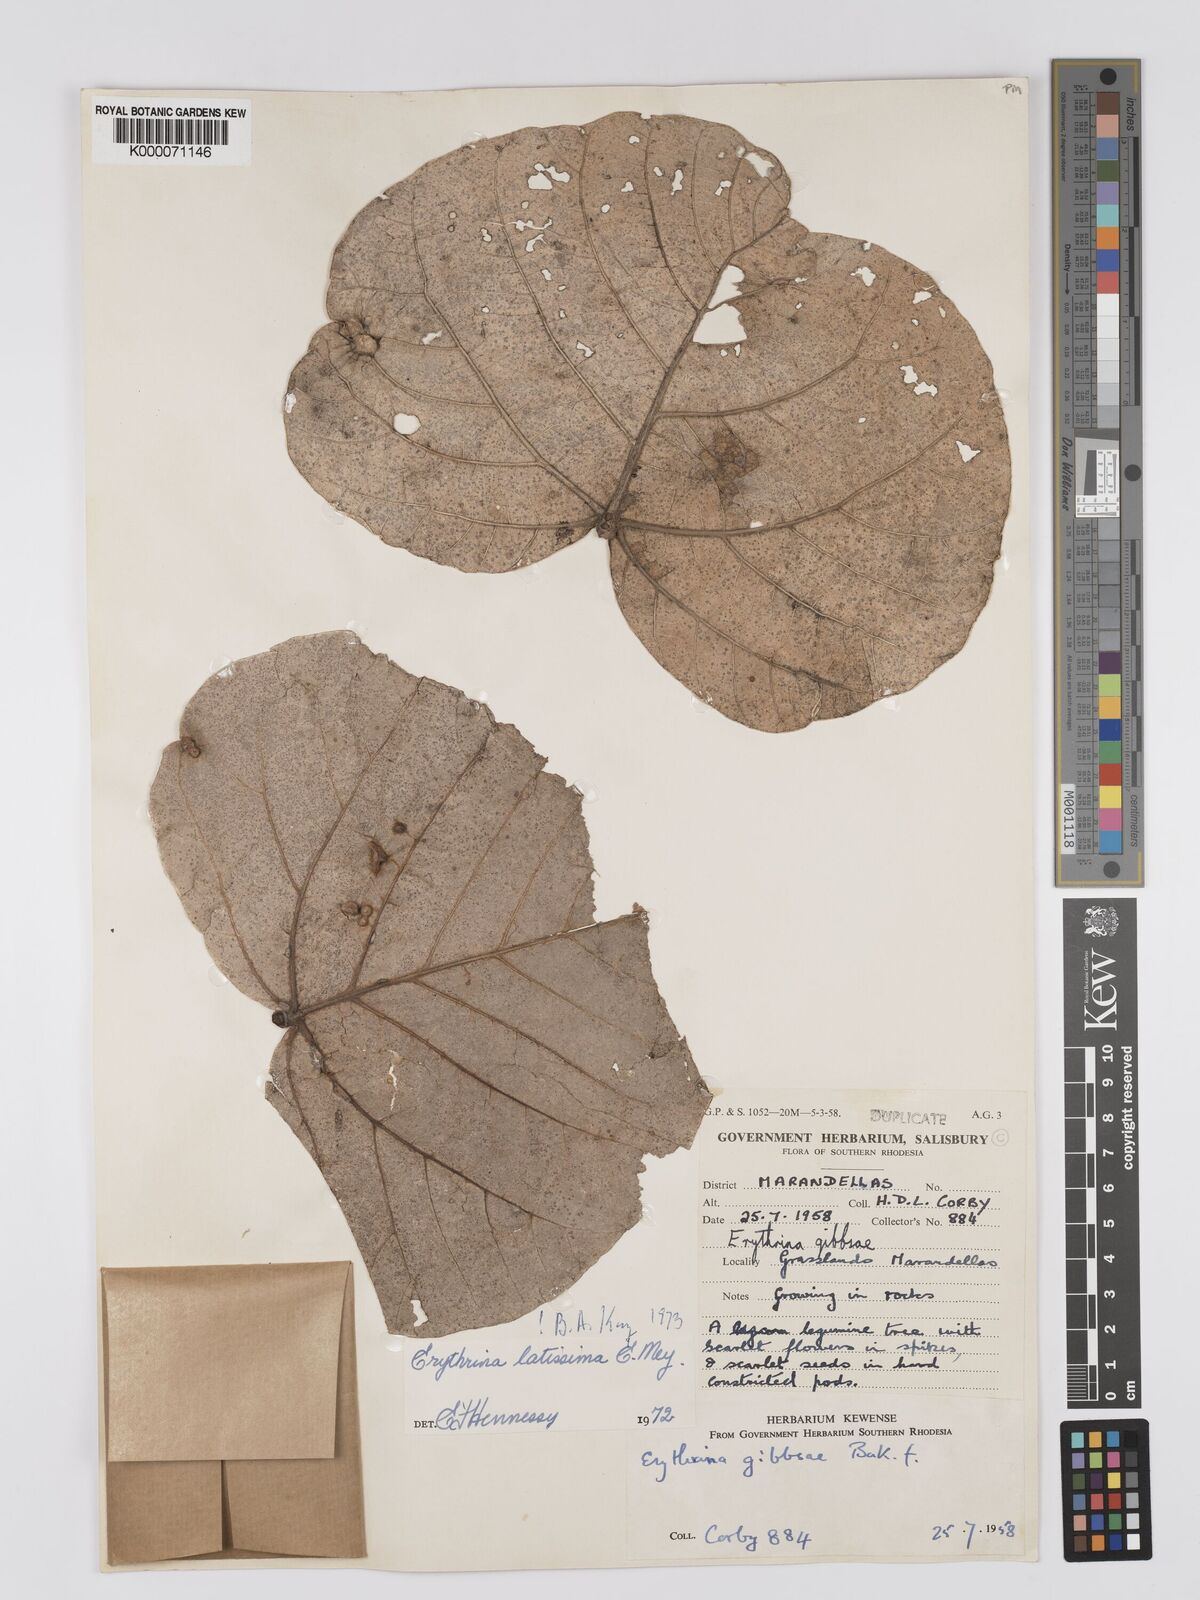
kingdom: Plantae
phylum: Tracheophyta
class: Magnoliopsida
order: Fabales
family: Fabaceae
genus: Erythrina
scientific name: Erythrina latissima
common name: Broad-leaved coral tree
